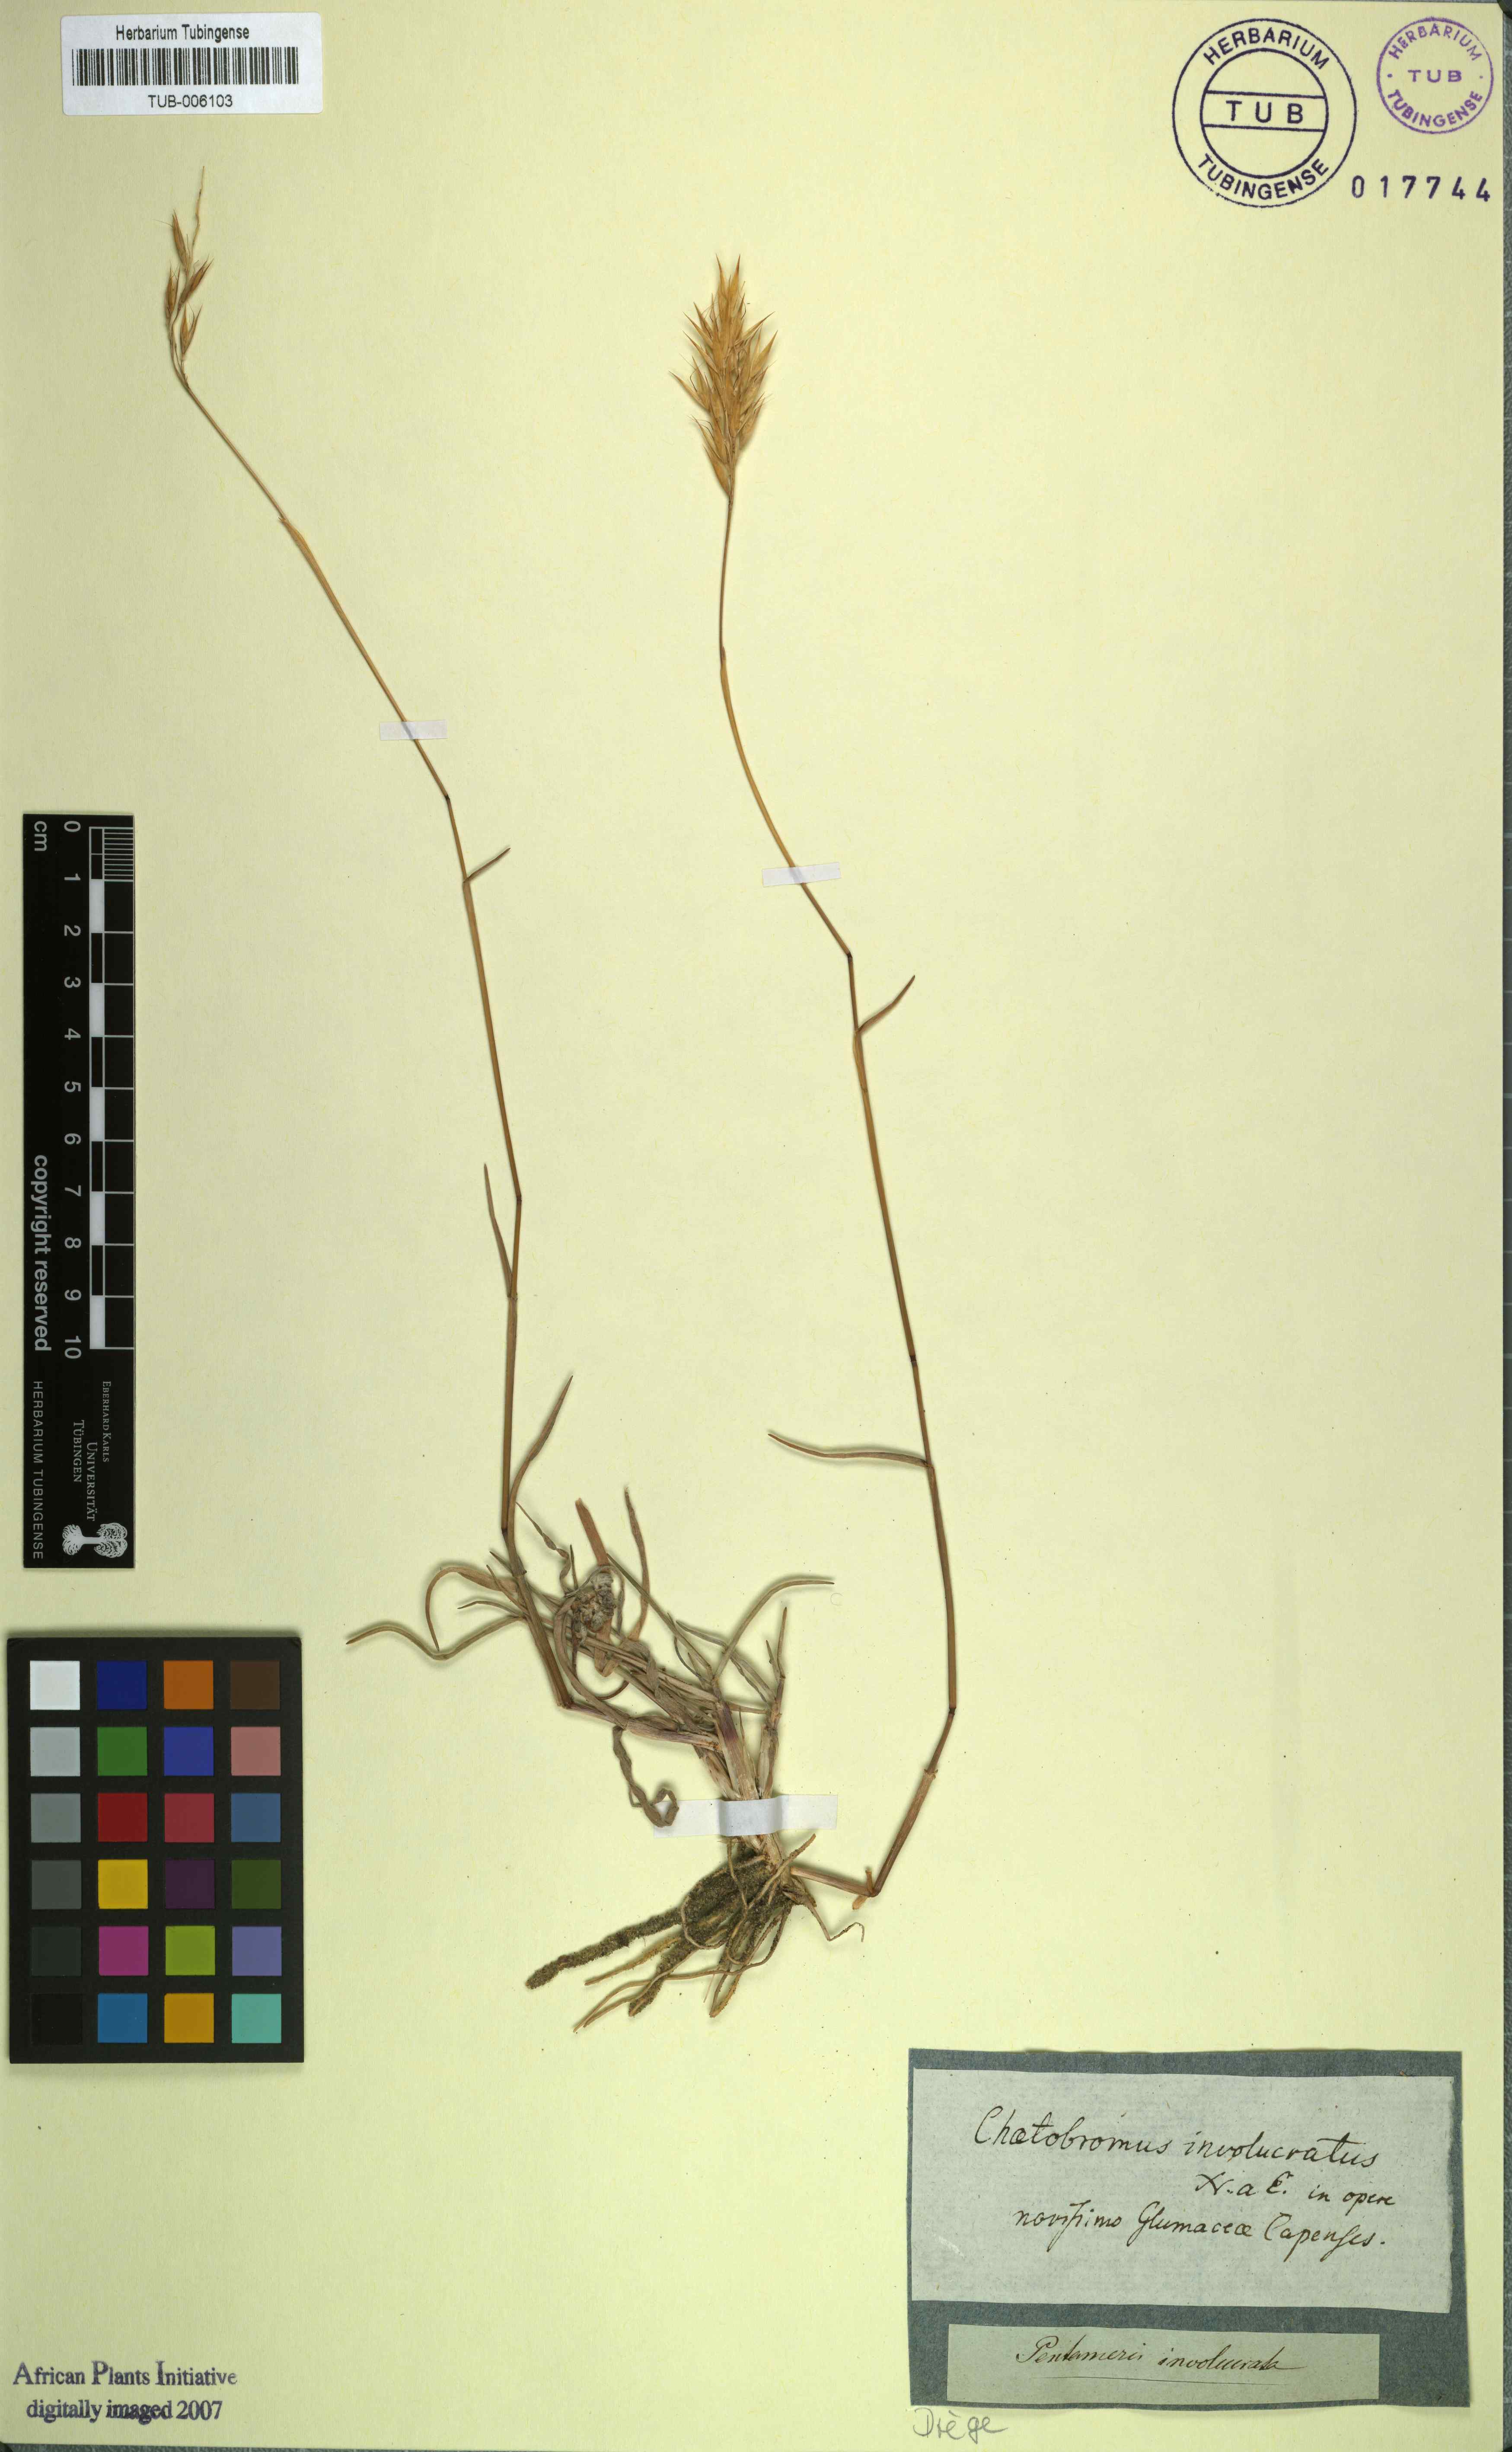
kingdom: Plantae
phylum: Tracheophyta
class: Liliopsida
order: Poales
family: Poaceae
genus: Chaetobromus
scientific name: Chaetobromus involucratus
